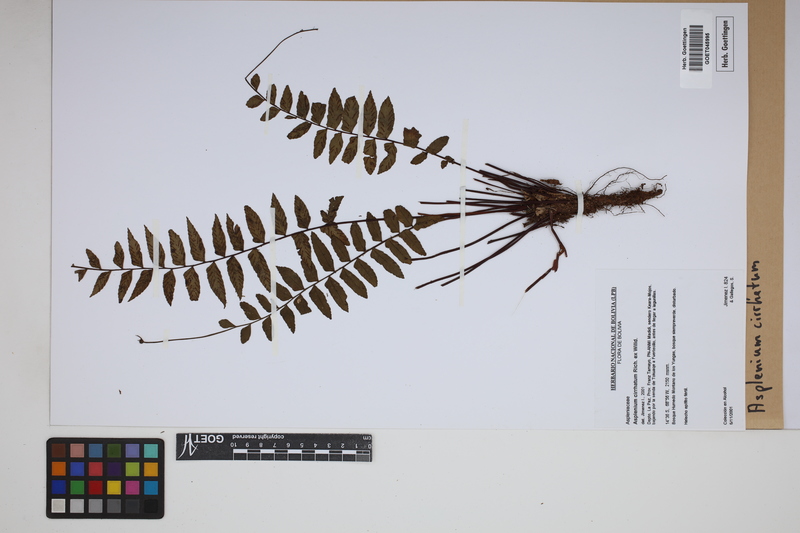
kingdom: Plantae
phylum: Tracheophyta
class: Polypodiopsida
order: Polypodiales
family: Aspleniaceae
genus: Asplenium
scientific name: Asplenium cirrhatum
